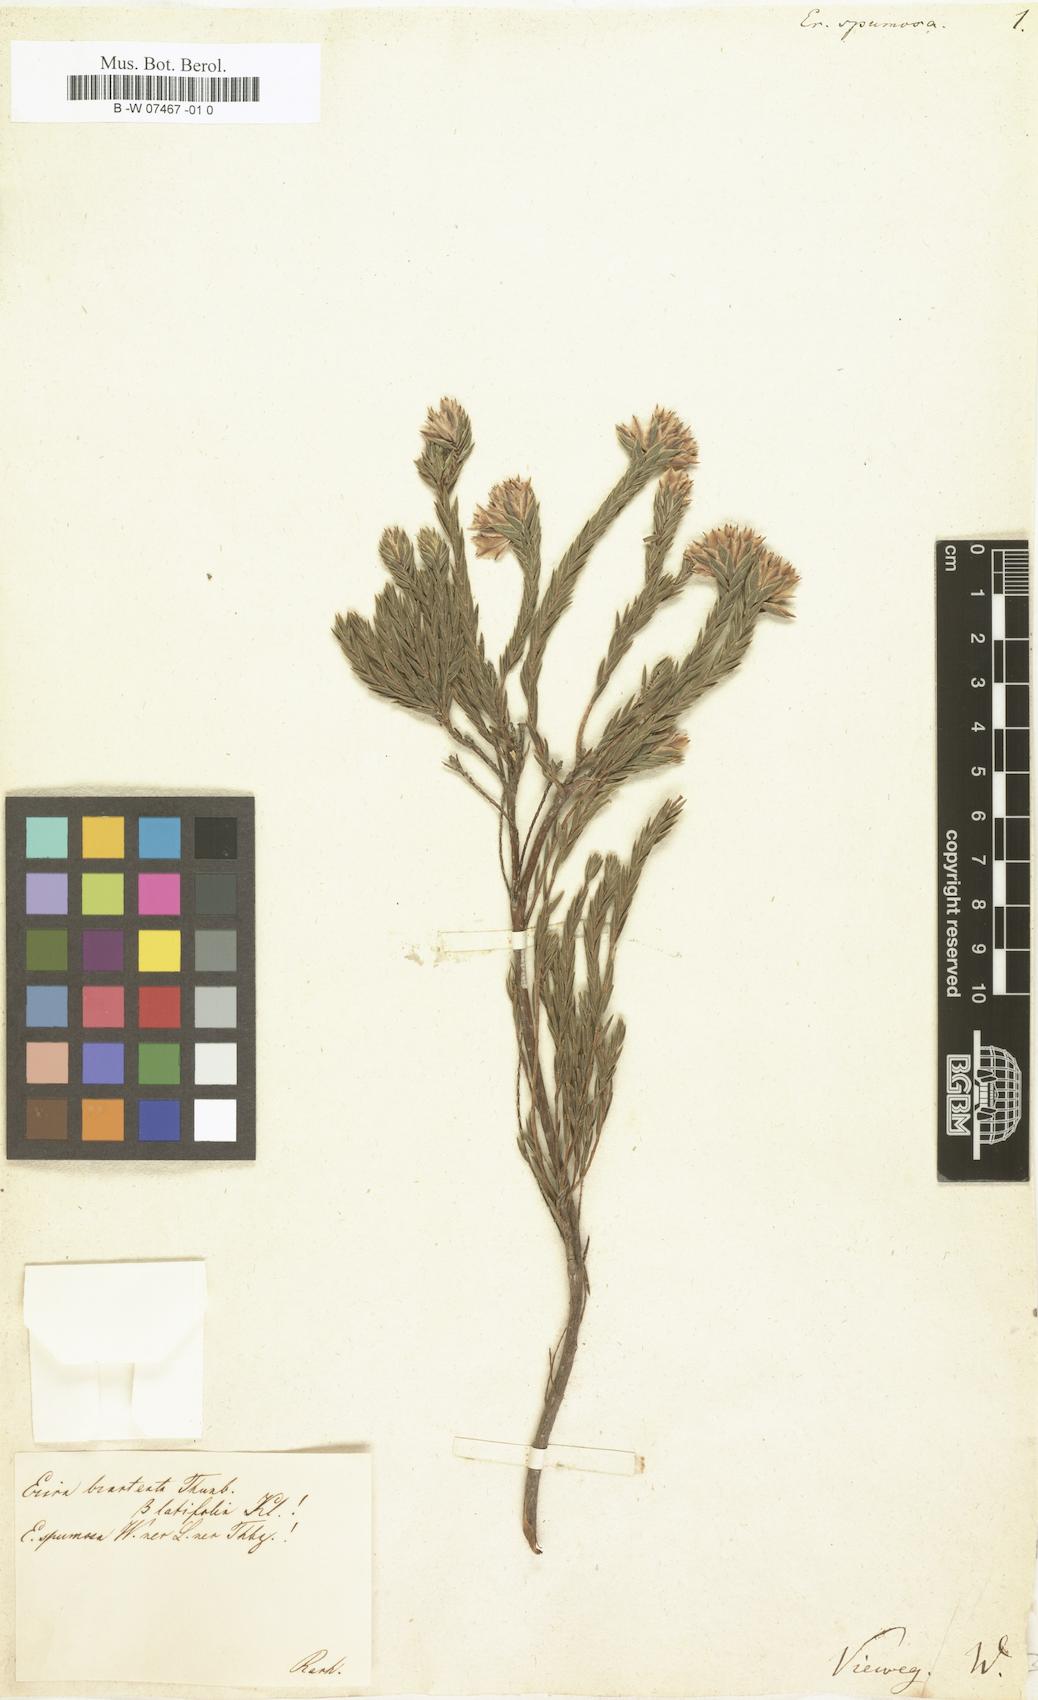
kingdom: Plantae
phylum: Tracheophyta
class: Magnoliopsida
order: Ericales
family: Ericaceae
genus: Erica
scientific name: Erica spumosa
